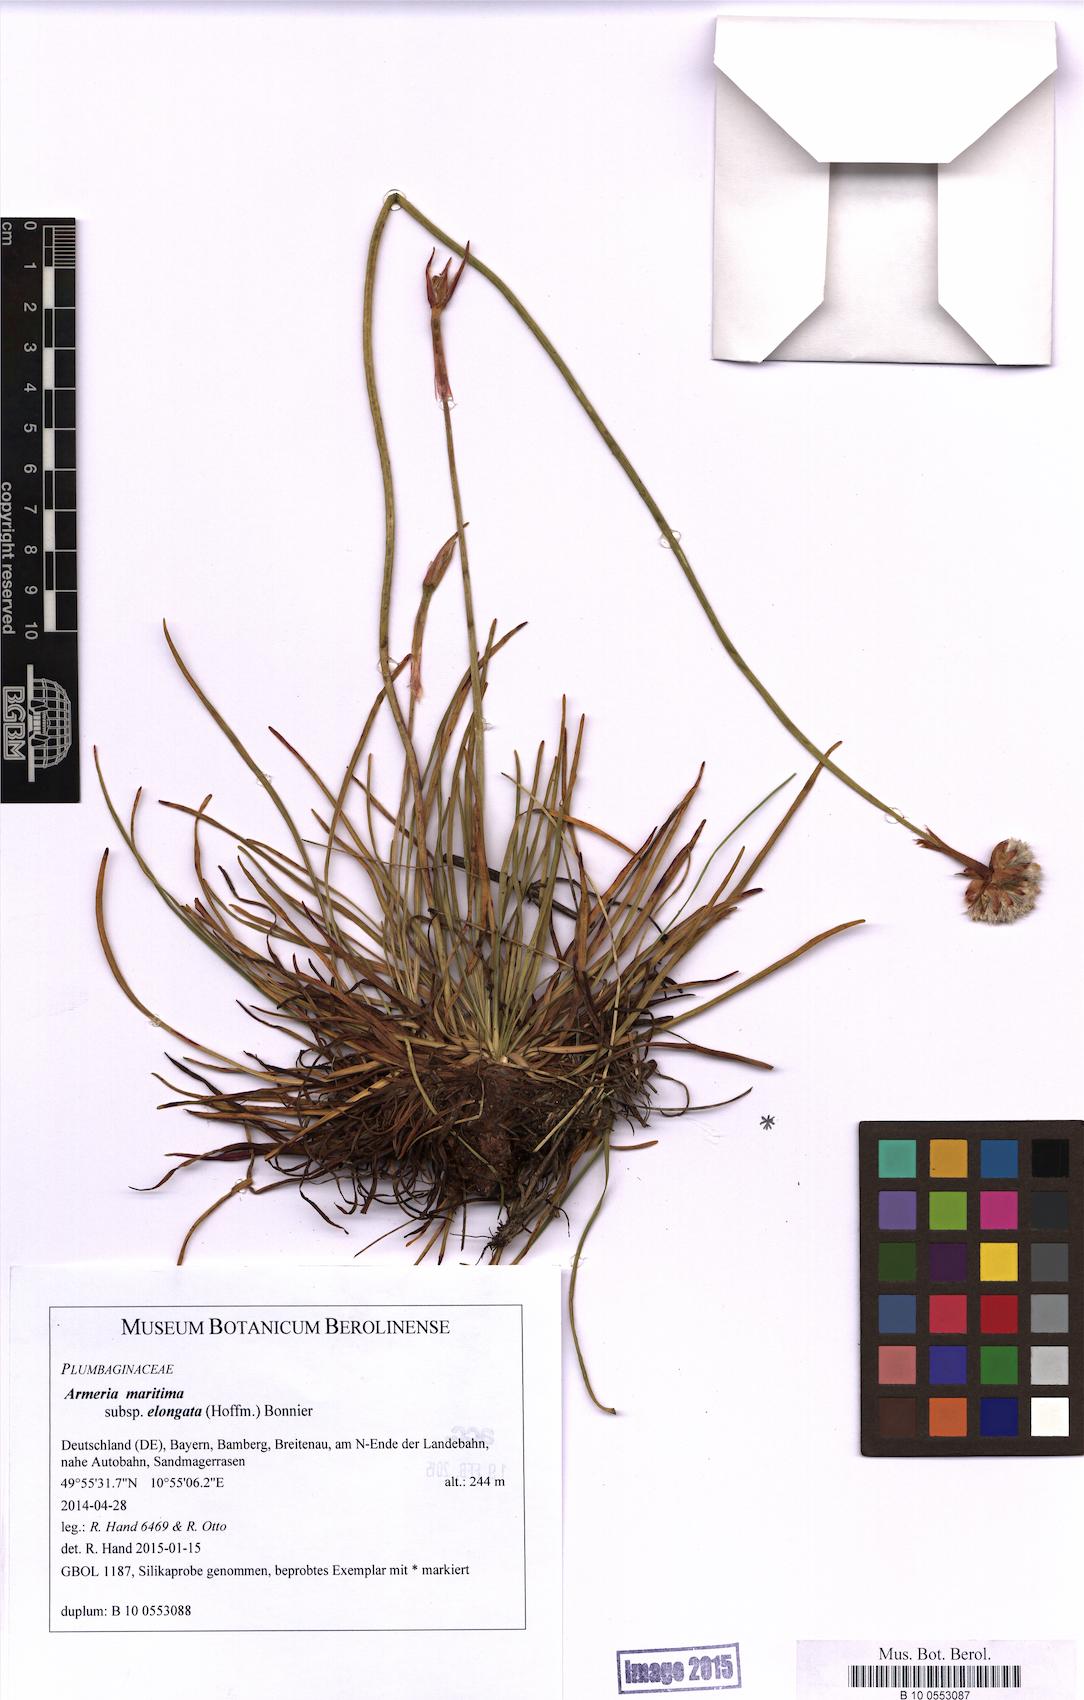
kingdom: Plantae
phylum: Tracheophyta
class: Magnoliopsida
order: Caryophyllales
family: Plumbaginaceae
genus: Armeria
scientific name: Armeria maritima
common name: Thrift
